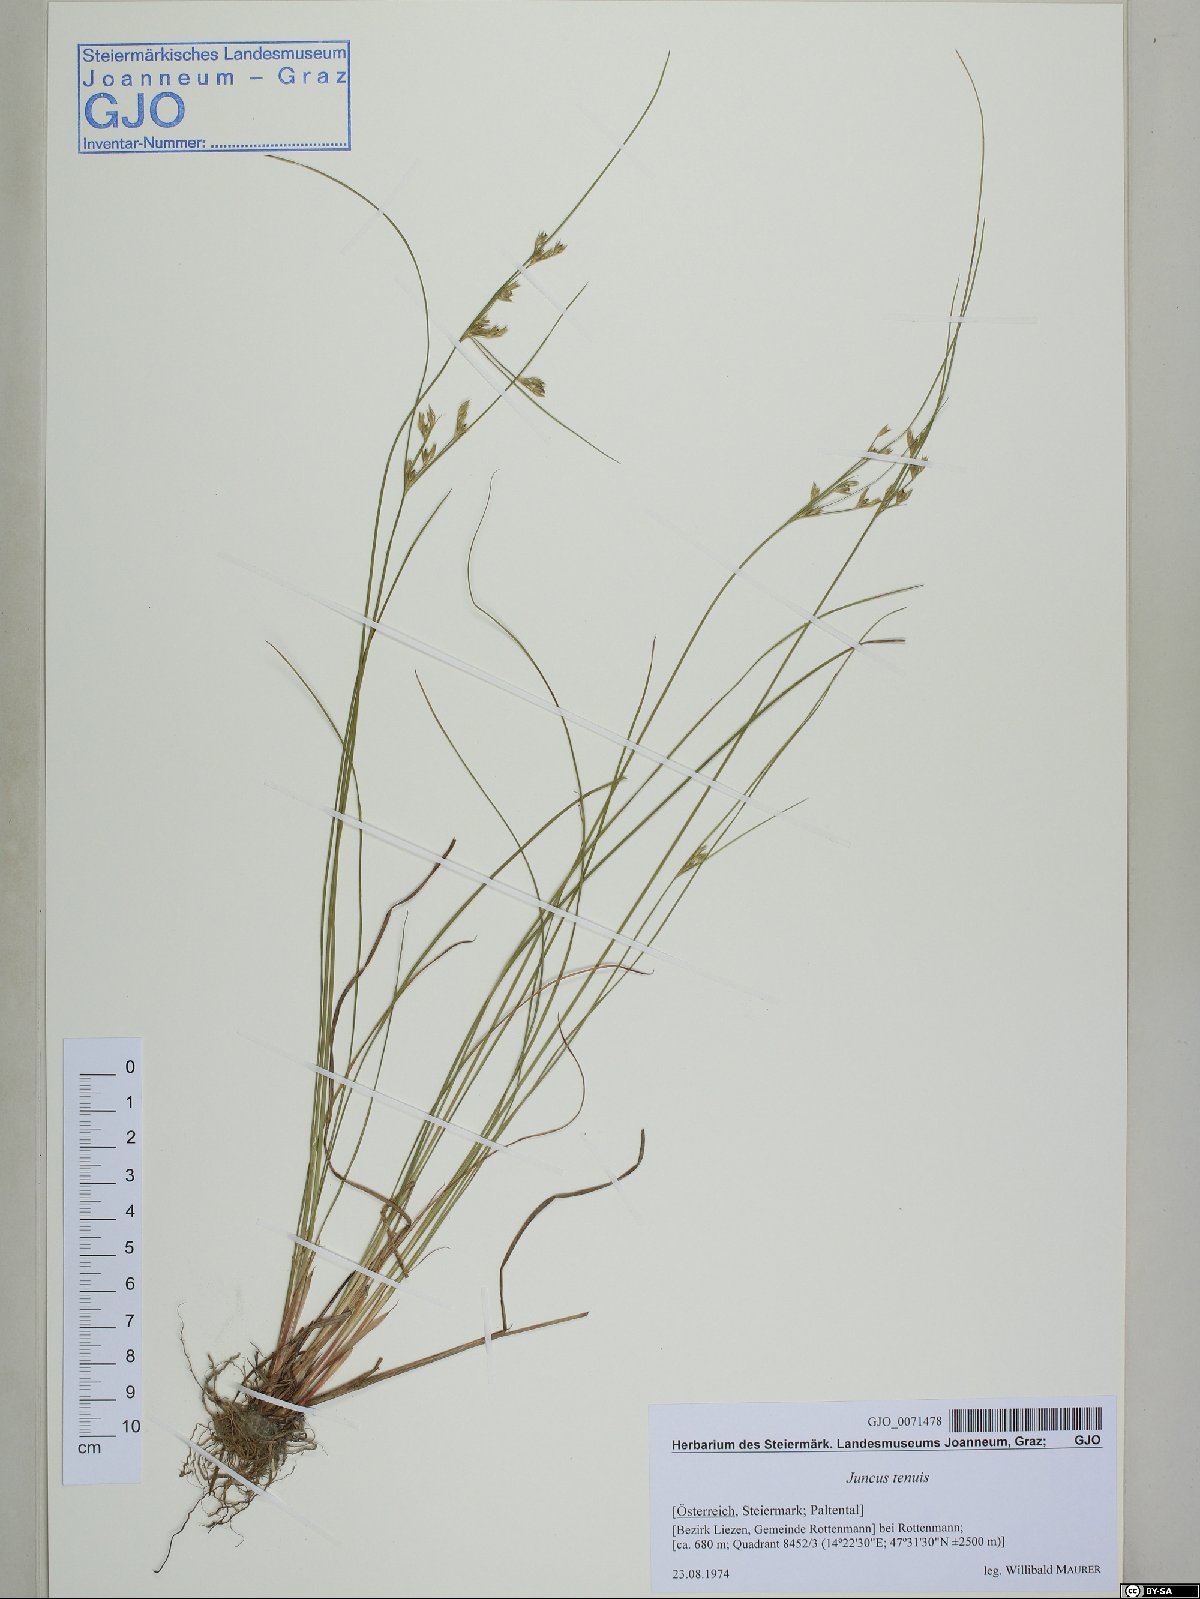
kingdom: Plantae
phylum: Tracheophyta
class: Liliopsida
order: Poales
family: Juncaceae
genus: Juncus
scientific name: Juncus tenuis
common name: Slender rush
